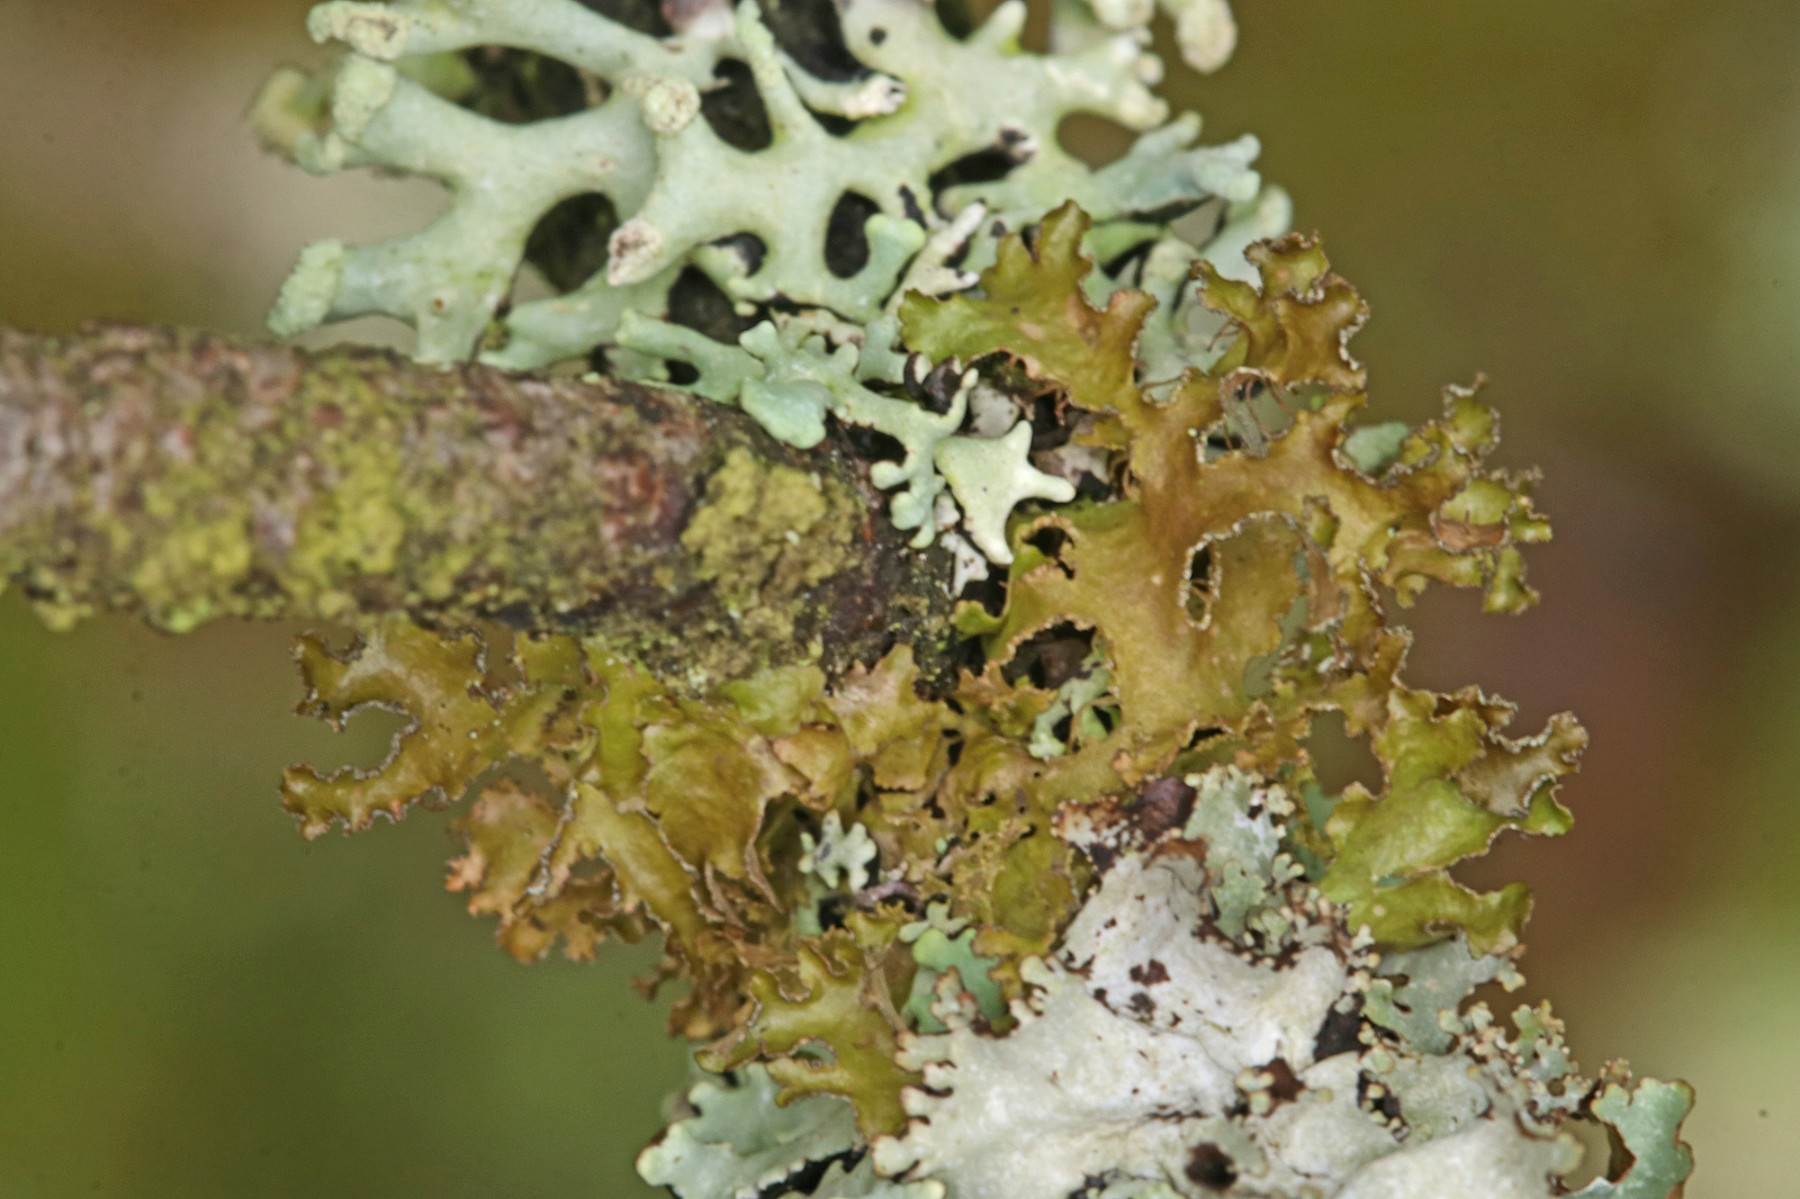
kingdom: Fungi
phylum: Ascomycota
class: Lecanoromycetes
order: Lecanorales
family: Parmeliaceae
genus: Nephromopsis
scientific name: Nephromopsis chlorophylla
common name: olivenbrun kruslav
